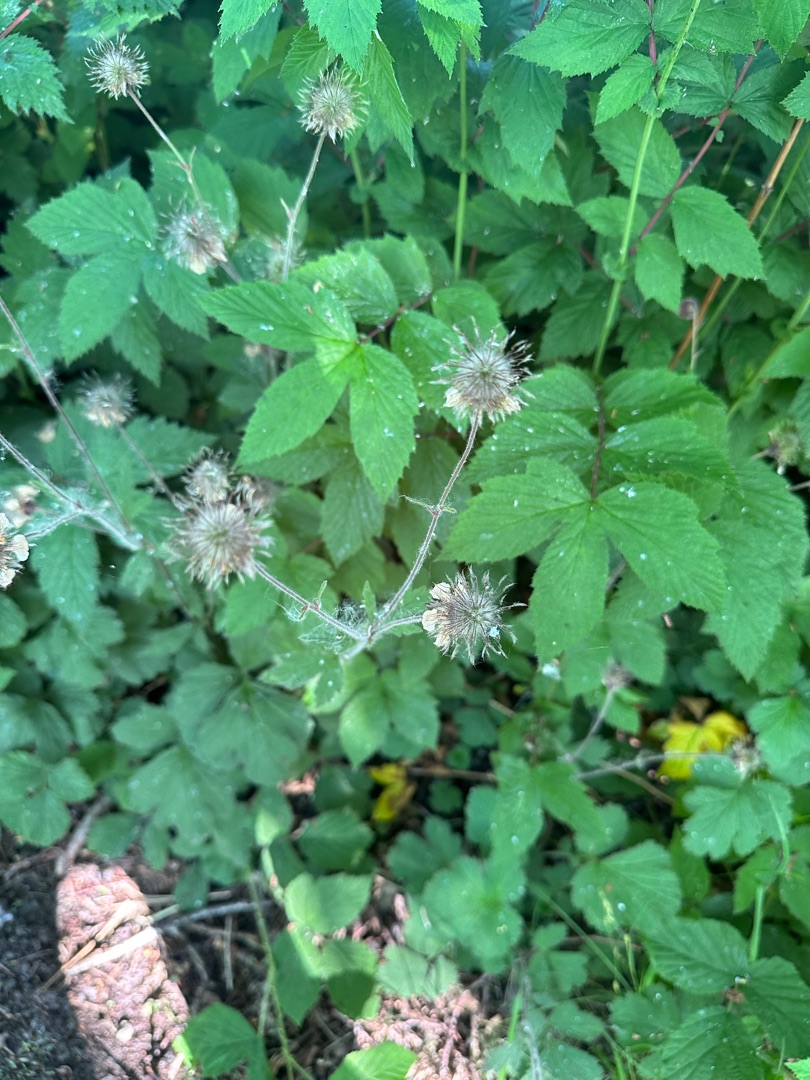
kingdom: Plantae
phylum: Tracheophyta
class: Magnoliopsida
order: Rosales
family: Rosaceae
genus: Geum
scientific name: Geum rivale
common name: Eng-nellikerod
